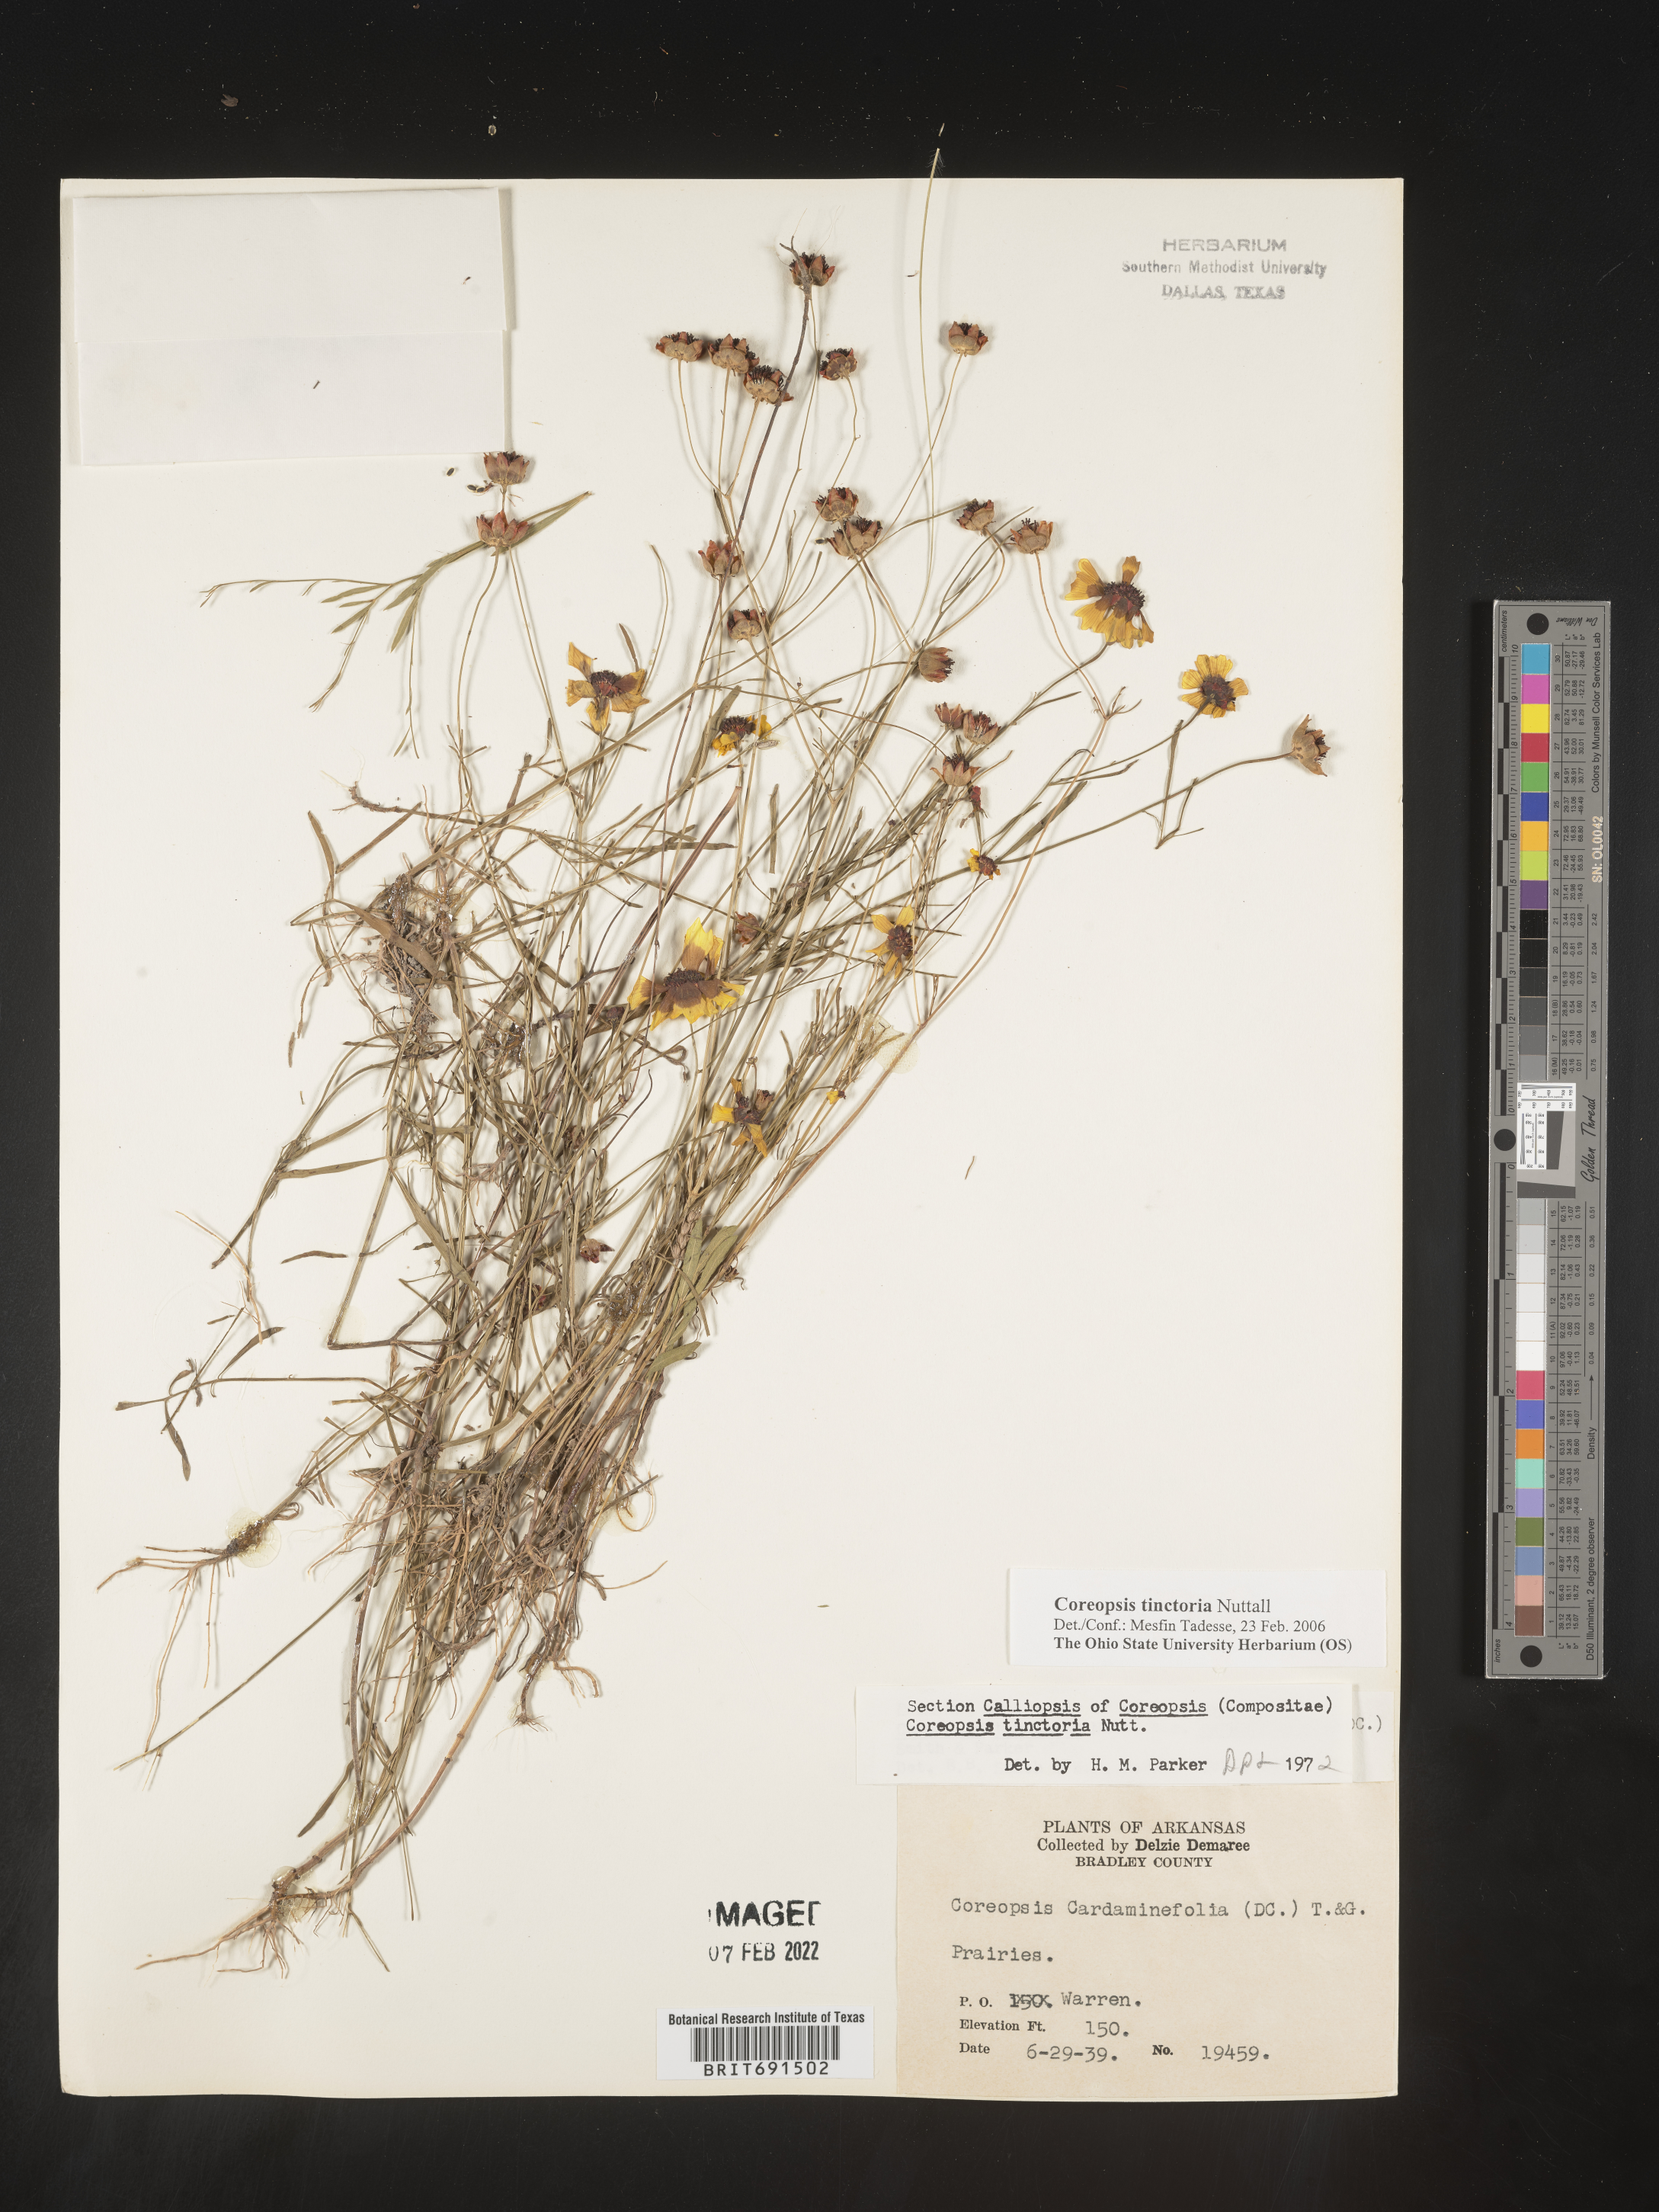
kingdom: Plantae
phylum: Tracheophyta
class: Magnoliopsida
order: Asterales
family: Asteraceae
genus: Coreopsis
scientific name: Coreopsis tinctoria
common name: Garden tickseed
